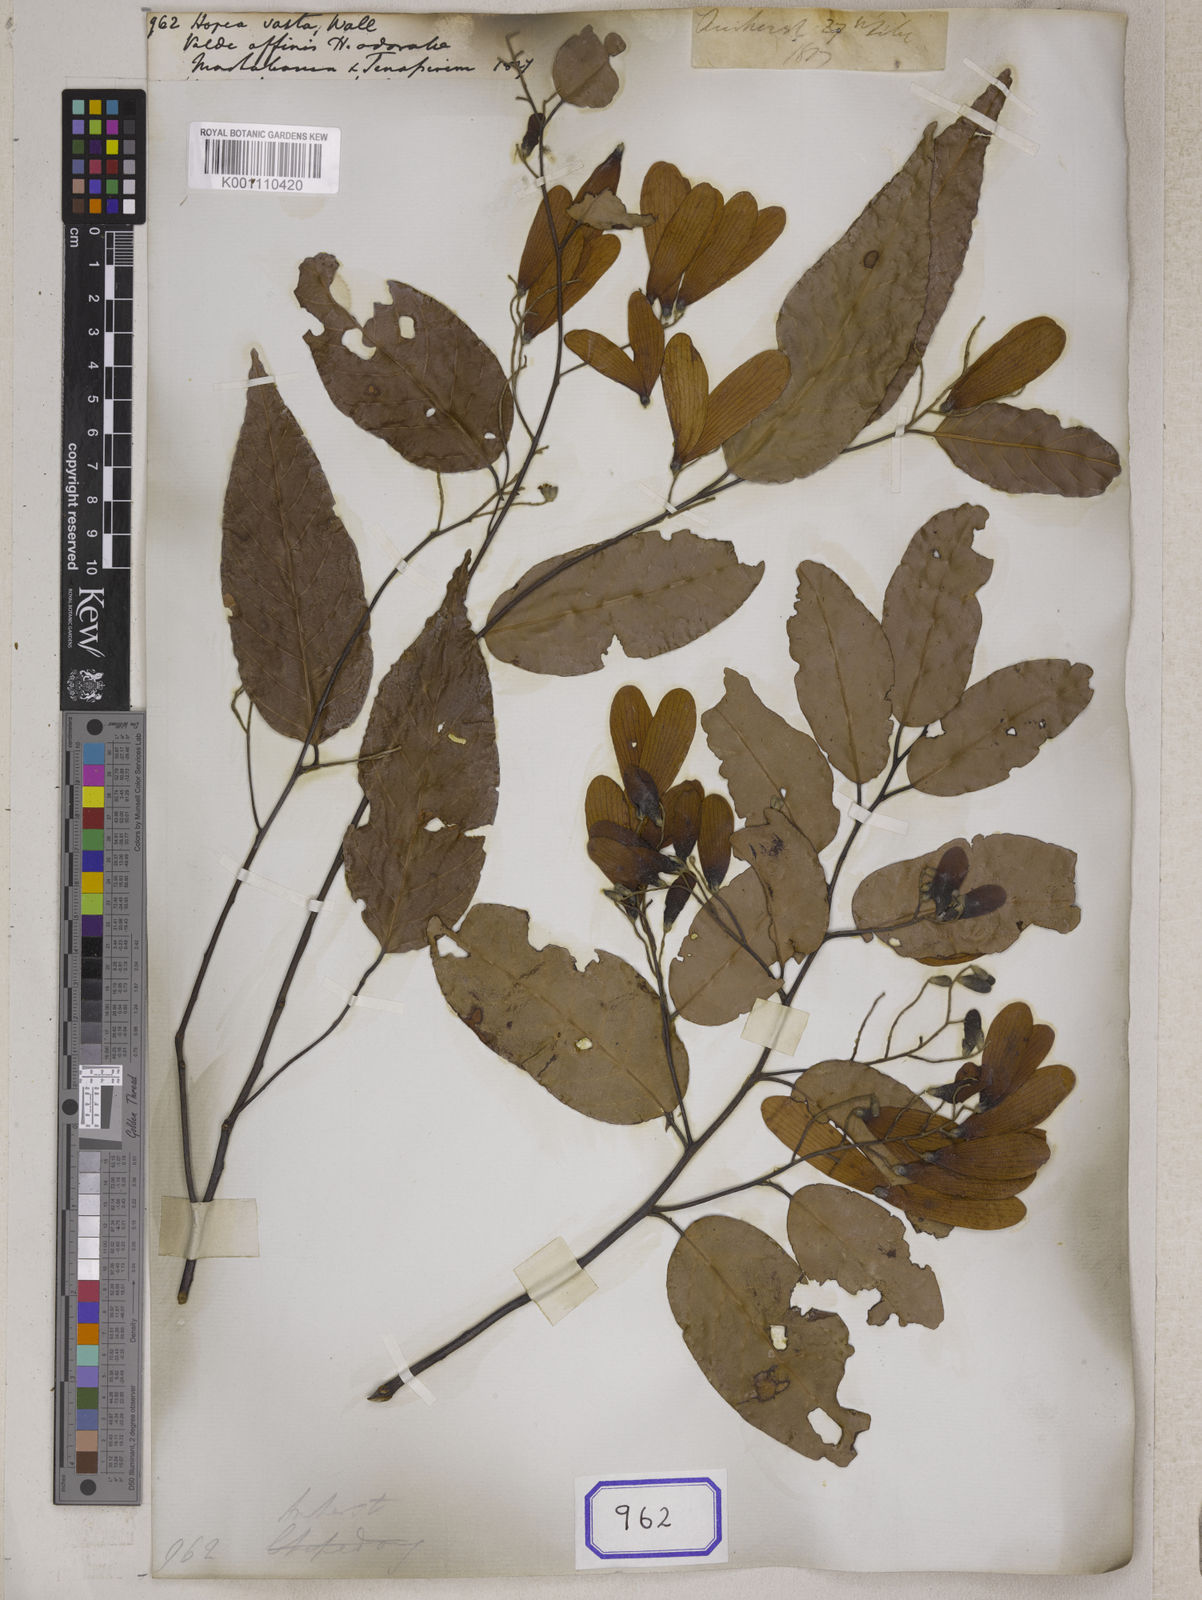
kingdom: Plantae
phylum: Tracheophyta
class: Magnoliopsida
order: Malvales
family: Dipterocarpaceae
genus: Hopea
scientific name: Hopea
